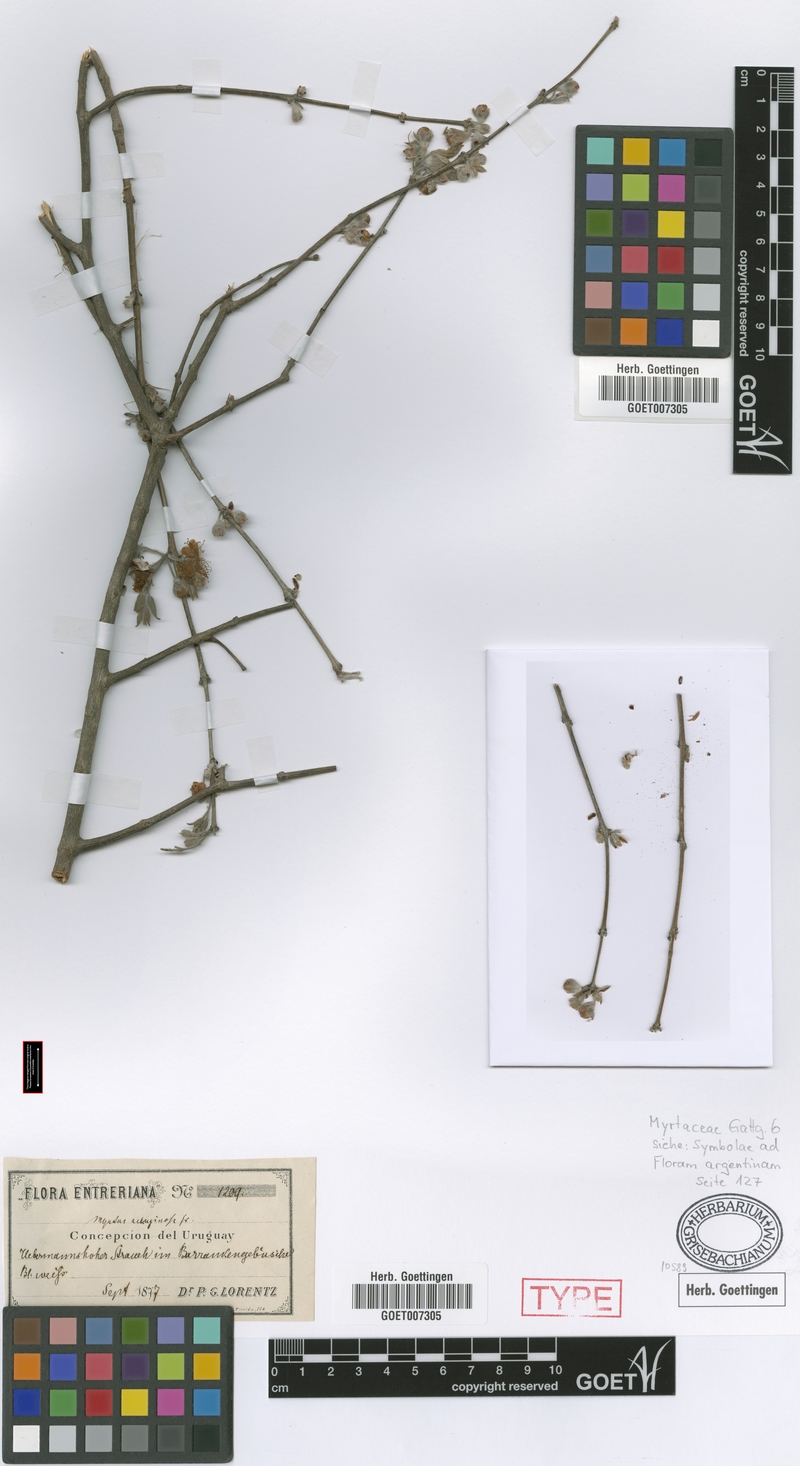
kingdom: Plantae
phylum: Tracheophyta
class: Magnoliopsida
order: Myrtales
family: Myrtaceae
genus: Myrtus
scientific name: Myrtus aeruginosa
